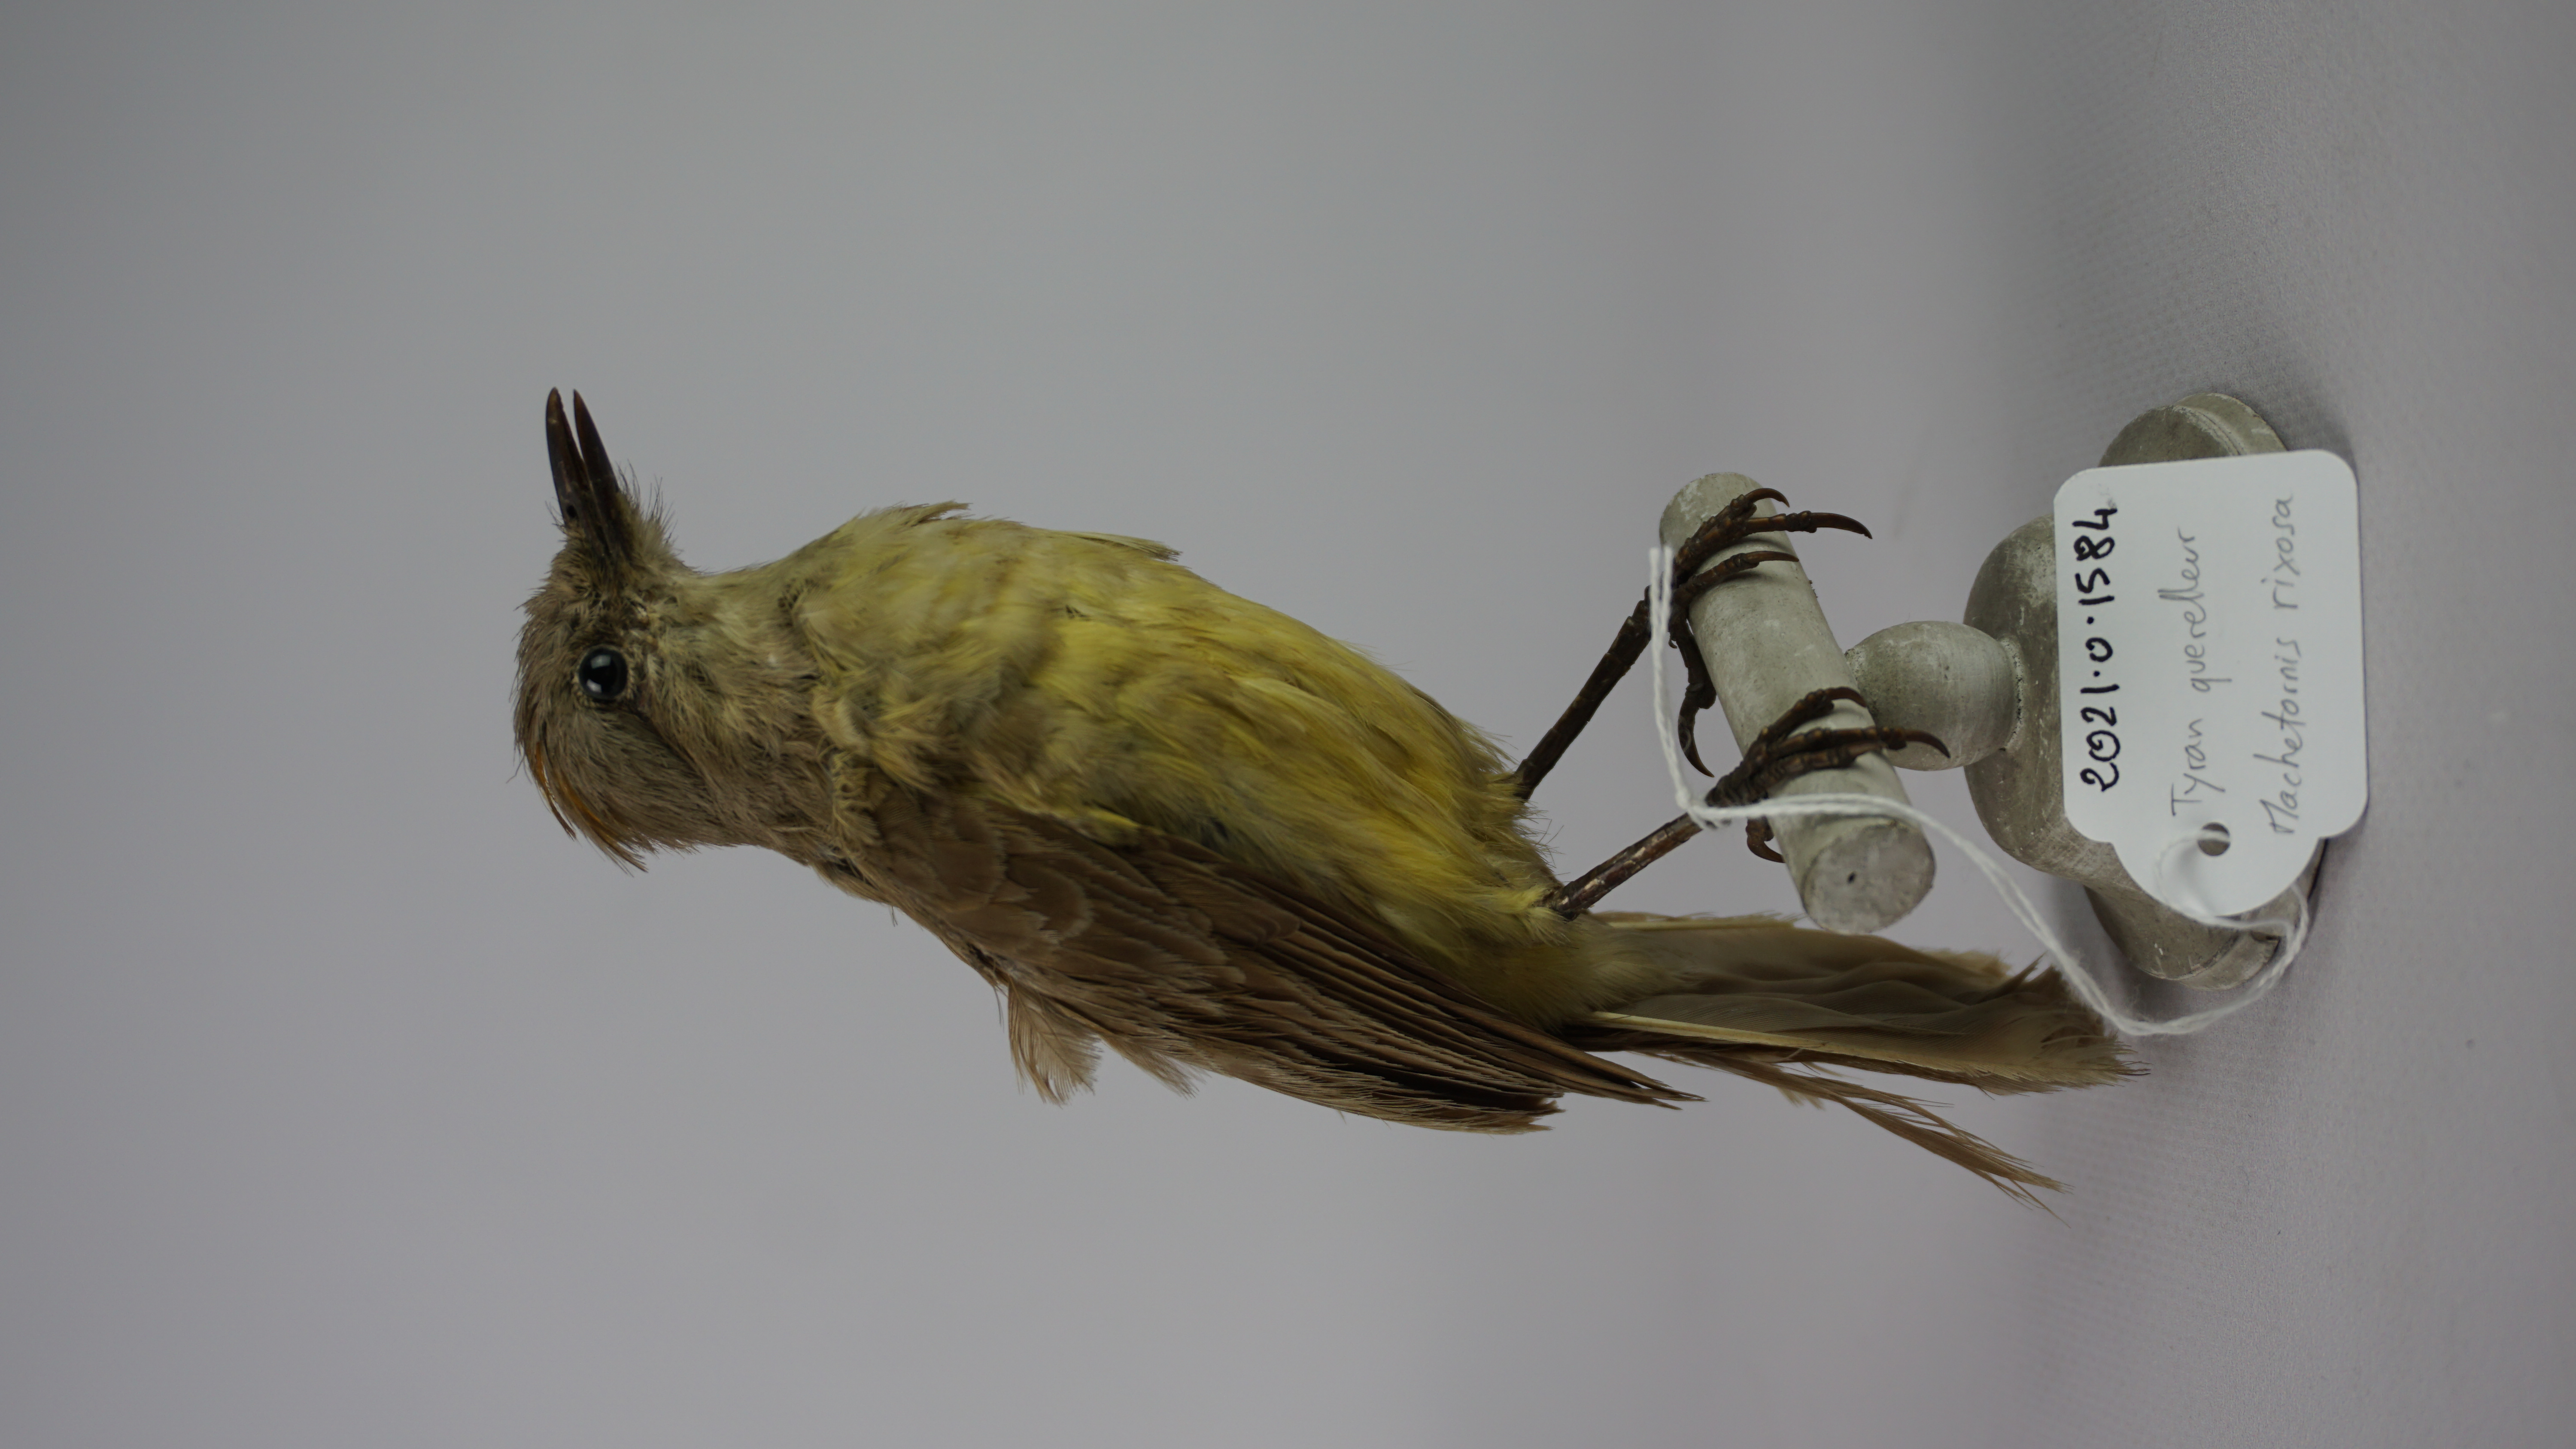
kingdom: Animalia
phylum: Chordata
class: Aves
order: Passeriformes
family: Tyrannidae
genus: Machetornis
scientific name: Machetornis rixosa
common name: Cattle tyrant
